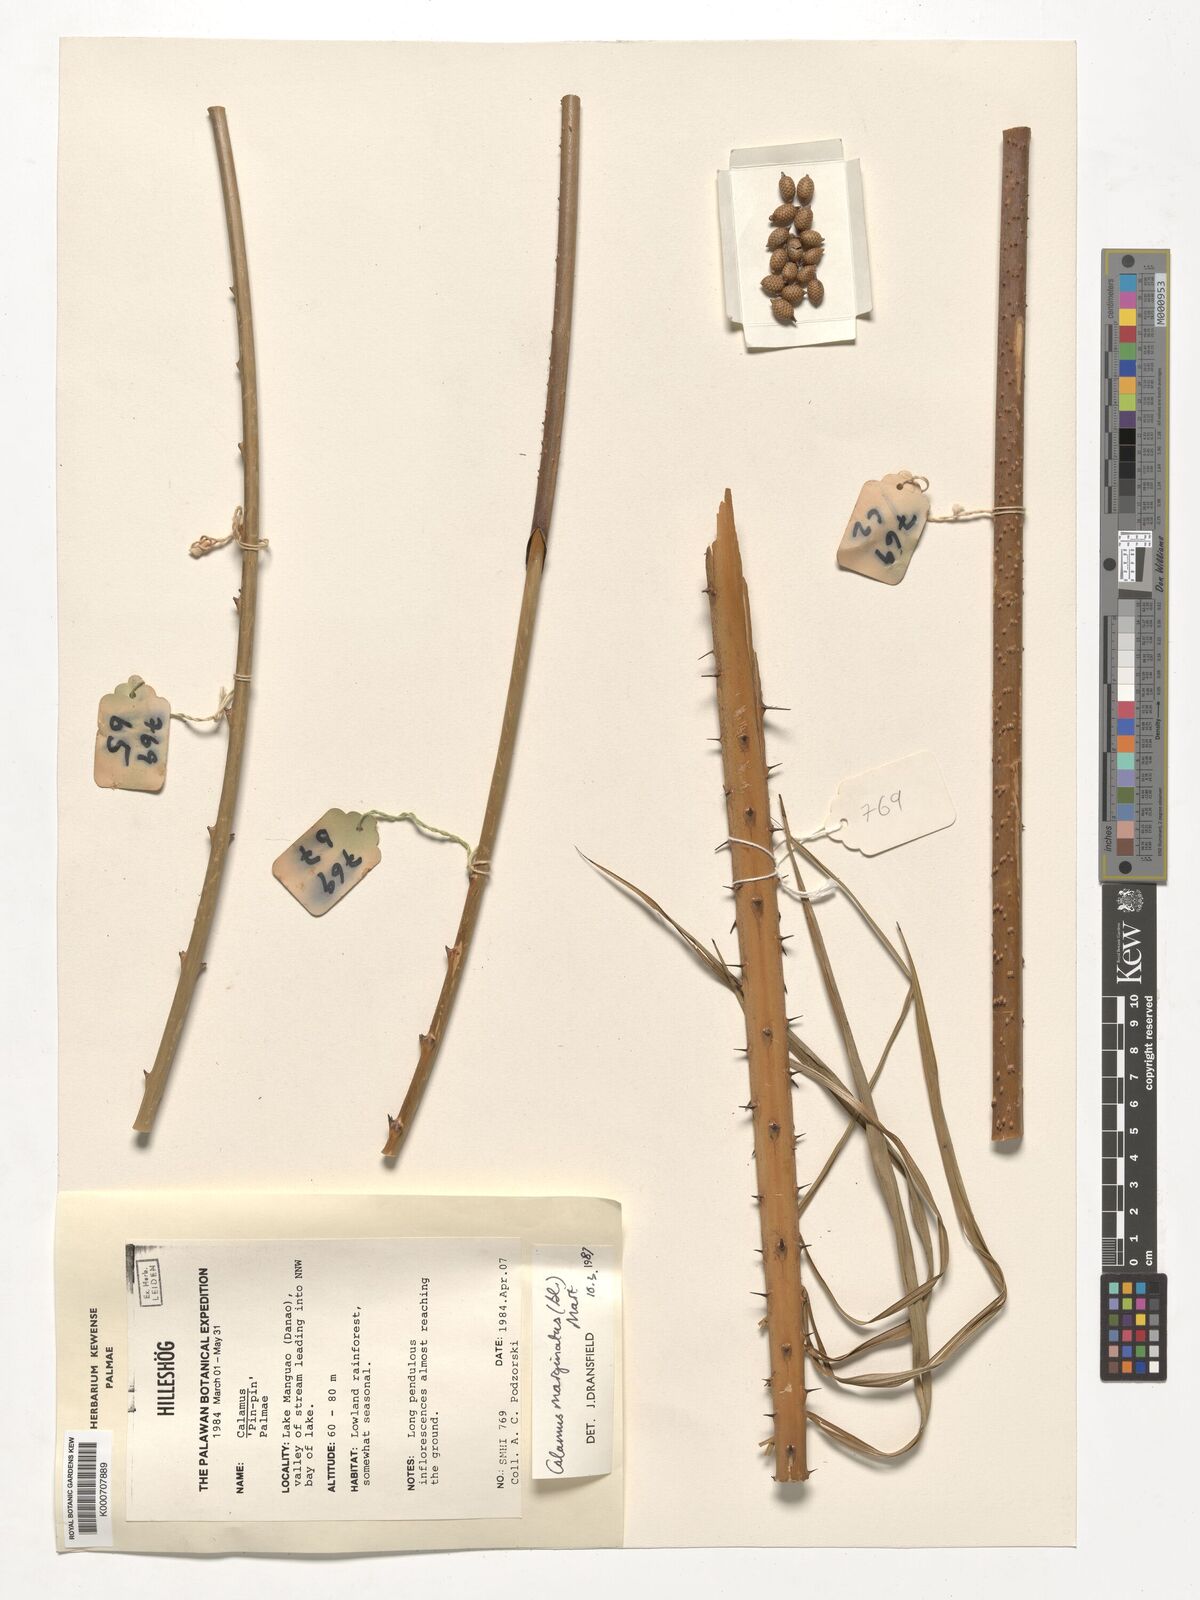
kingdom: Plantae
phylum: Tracheophyta
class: Liliopsida
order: Arecales
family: Arecaceae
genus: Calamus
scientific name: Calamus marginatus
